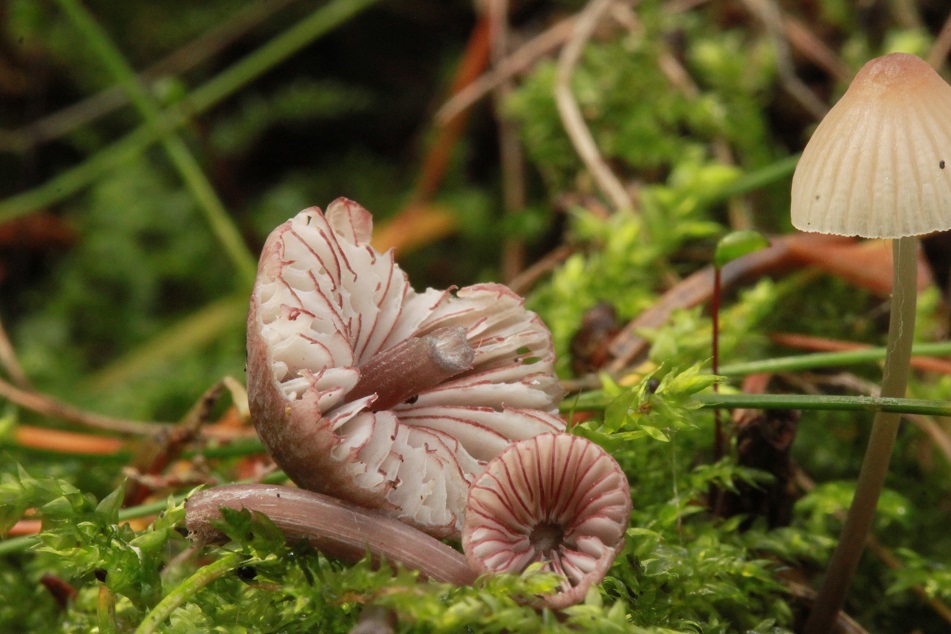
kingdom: Fungi
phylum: Basidiomycota
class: Agaricomycetes
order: Agaricales
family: Mycenaceae
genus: Mycena
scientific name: Mycena rubromarginata
